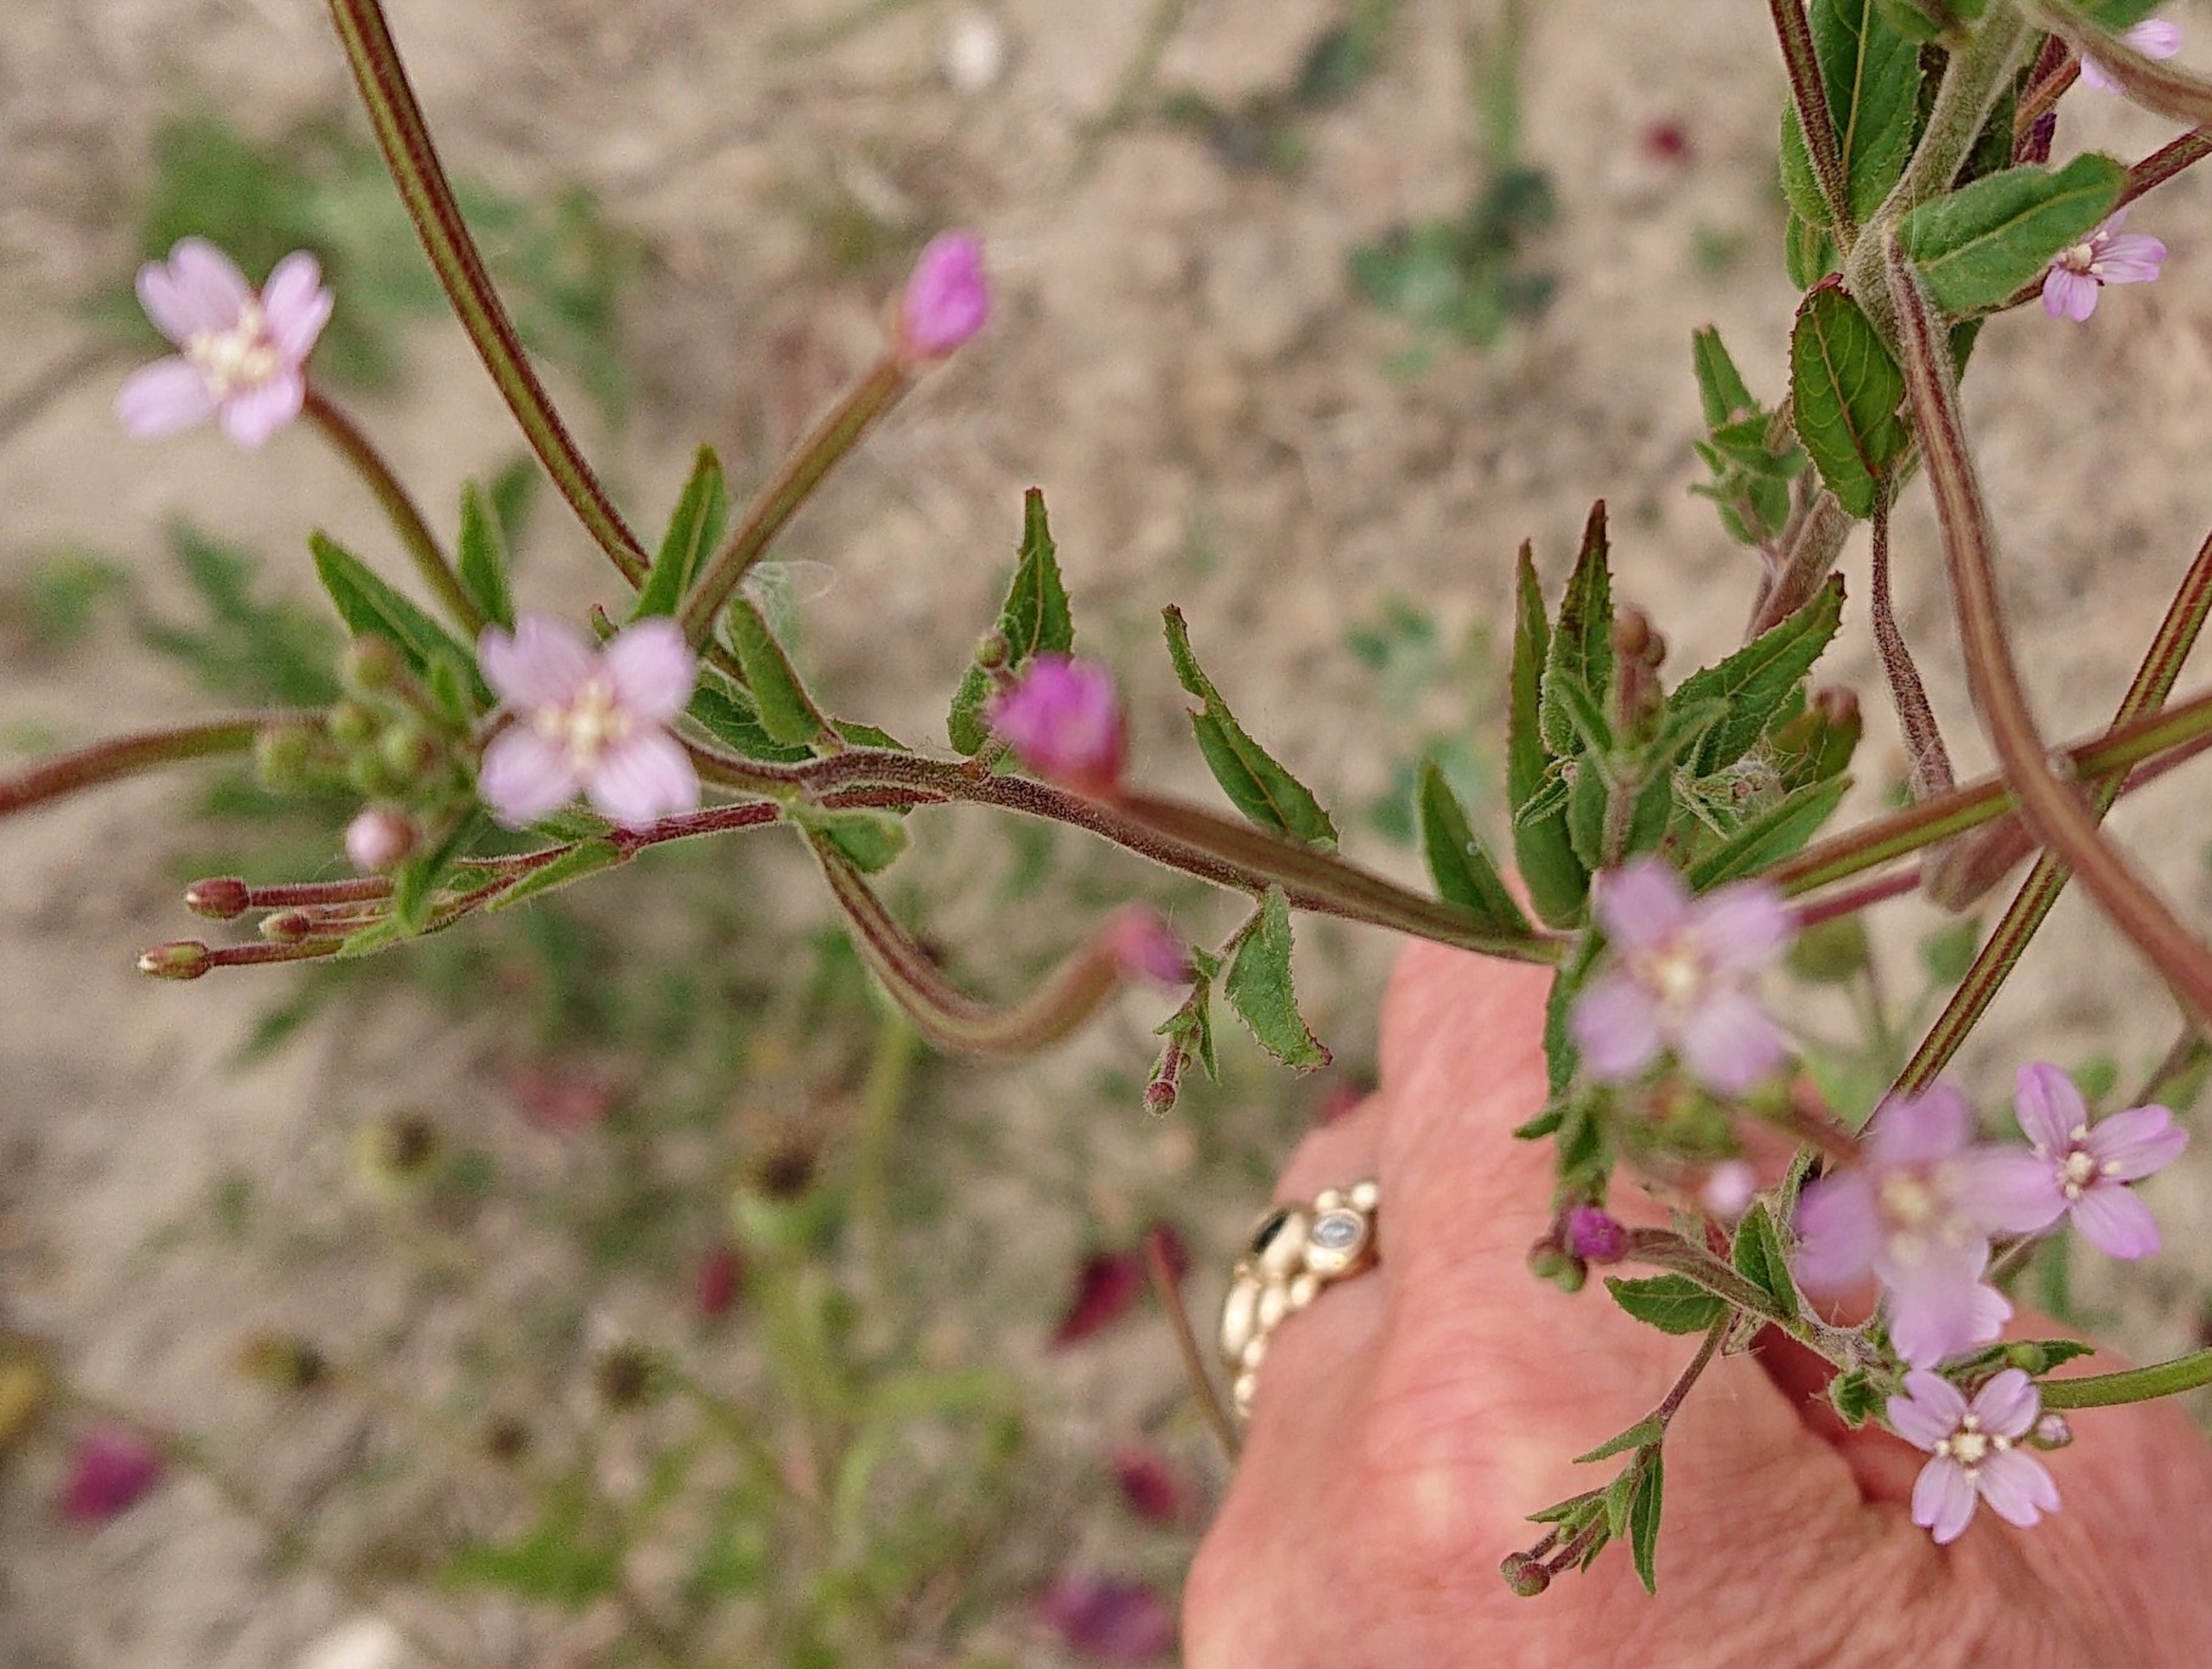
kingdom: Plantae
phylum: Tracheophyta
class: Magnoliopsida
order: Myrtales
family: Onagraceae
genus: Epilobium
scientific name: Epilobium ciliatum
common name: Kirtlet dueurt
